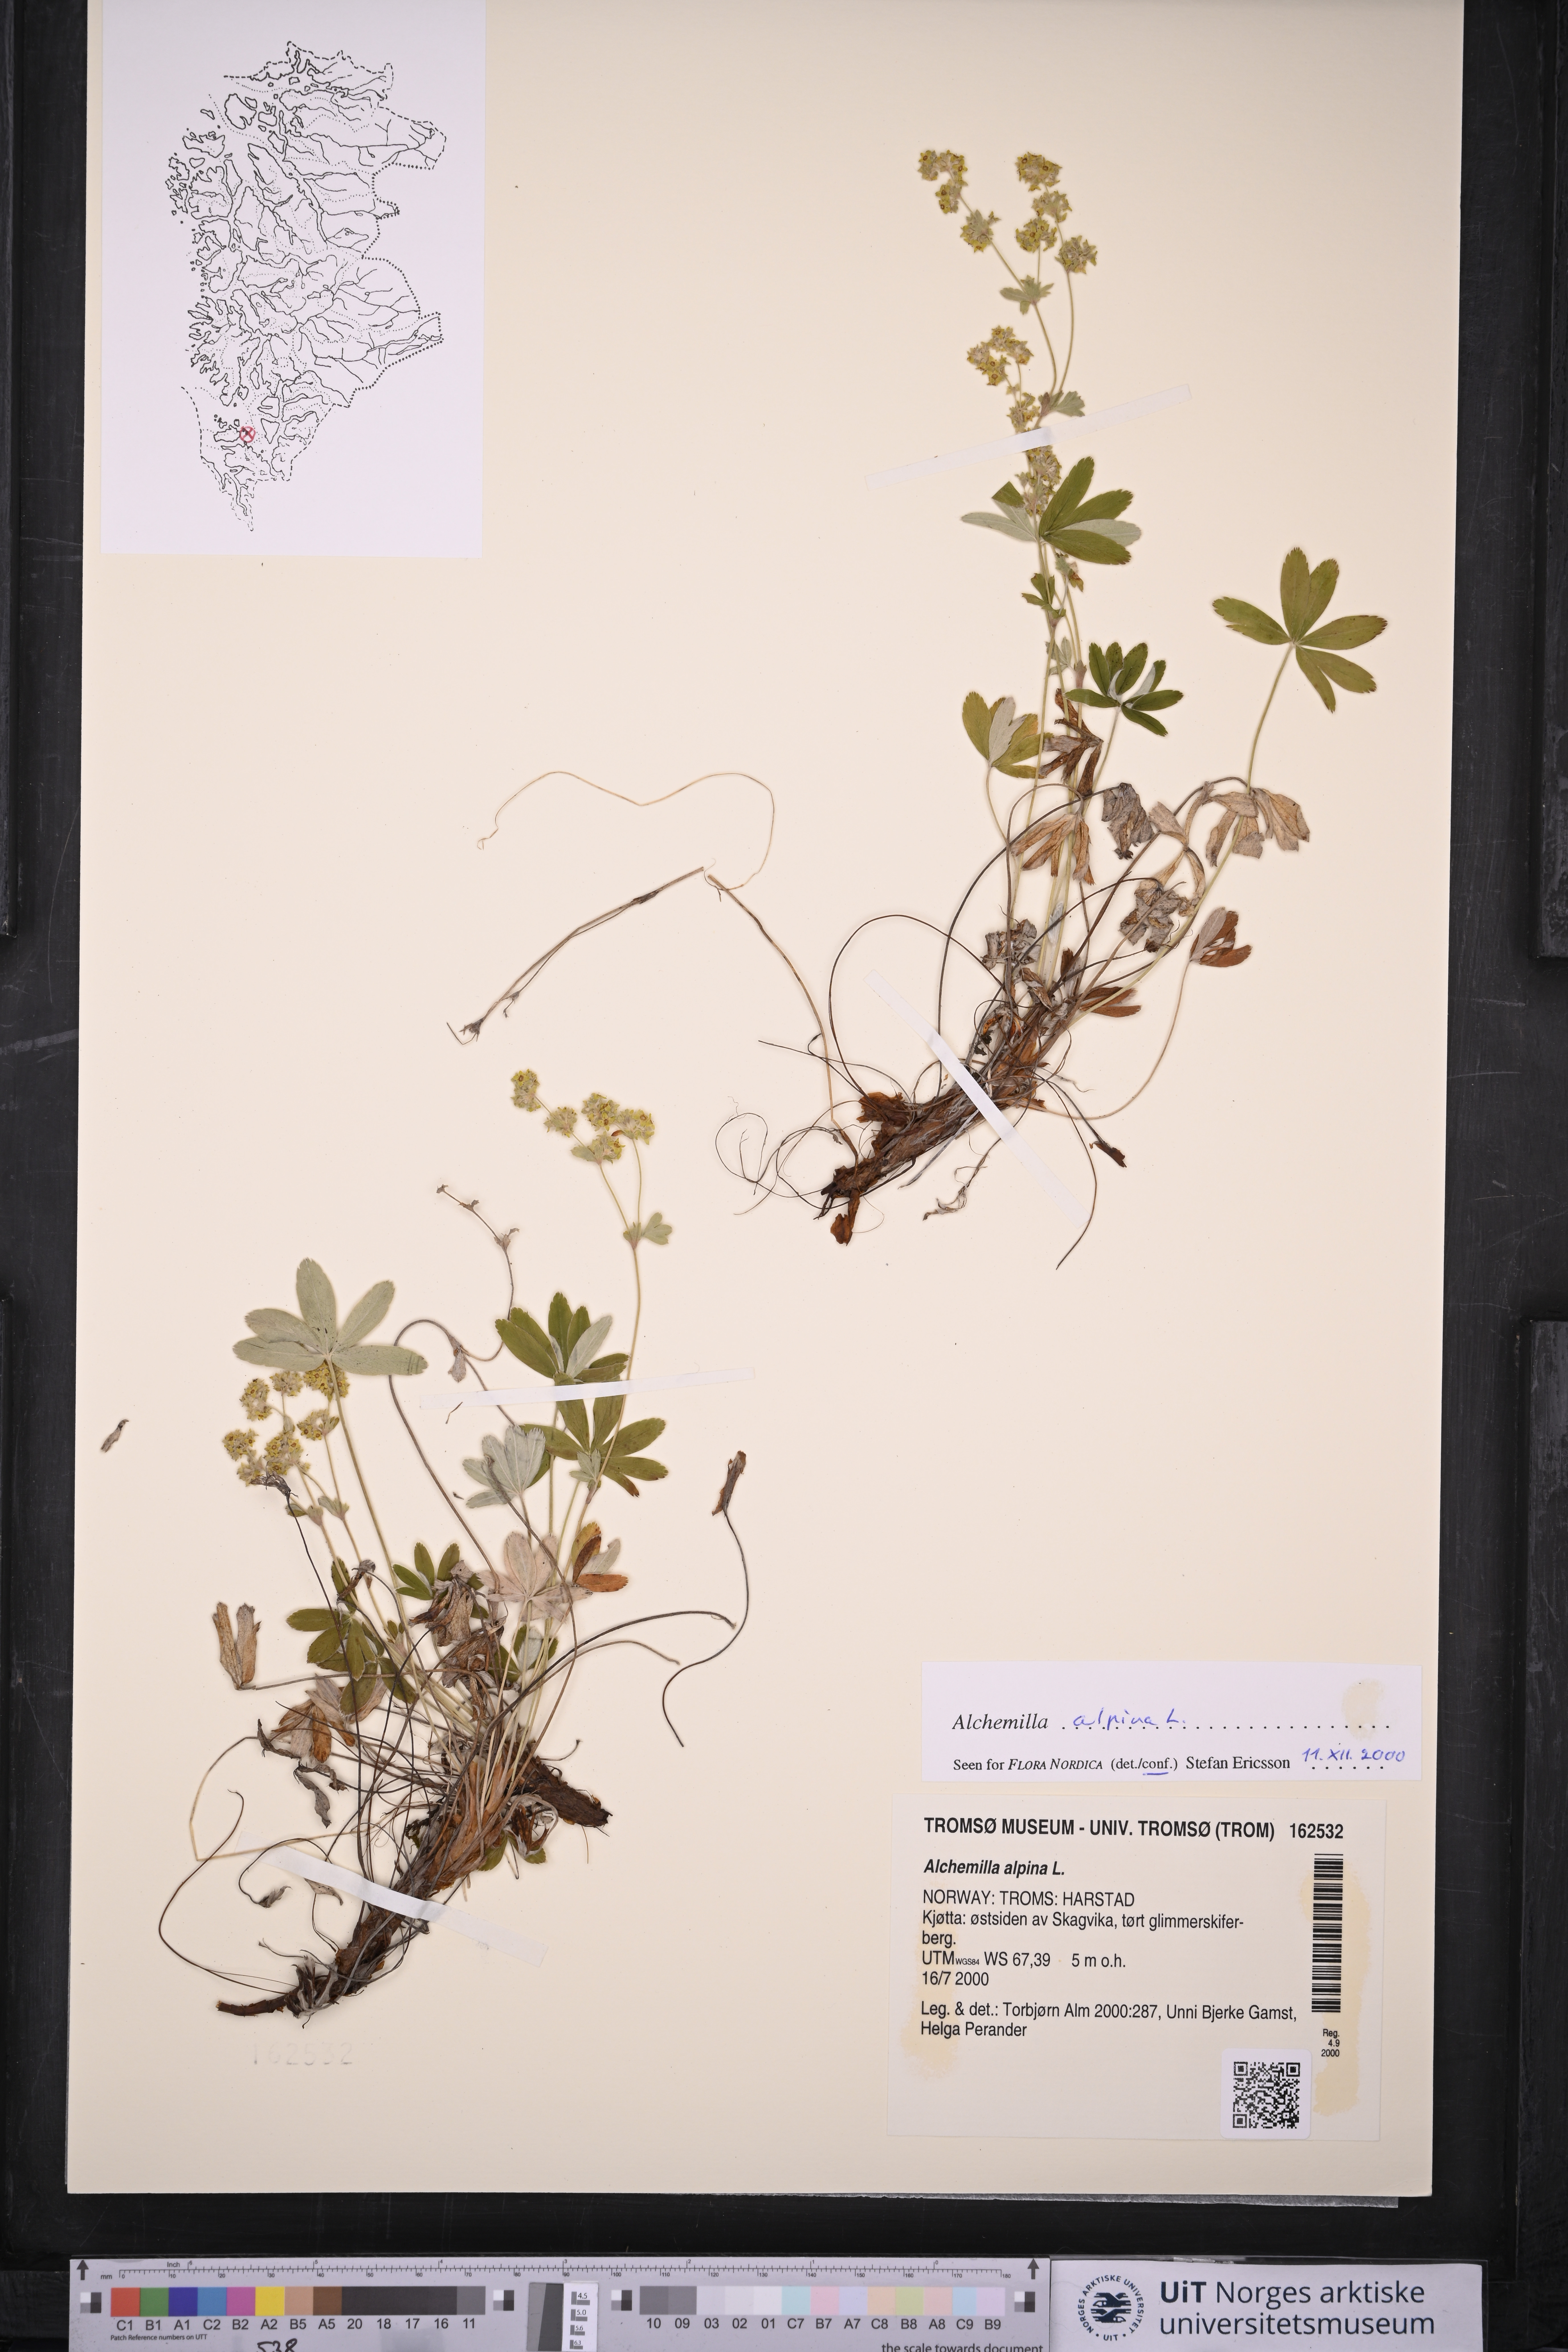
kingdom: Plantae
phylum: Tracheophyta
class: Magnoliopsida
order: Rosales
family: Rosaceae
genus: Alchemilla
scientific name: Alchemilla alpina
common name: Alpine lady's-mantle
